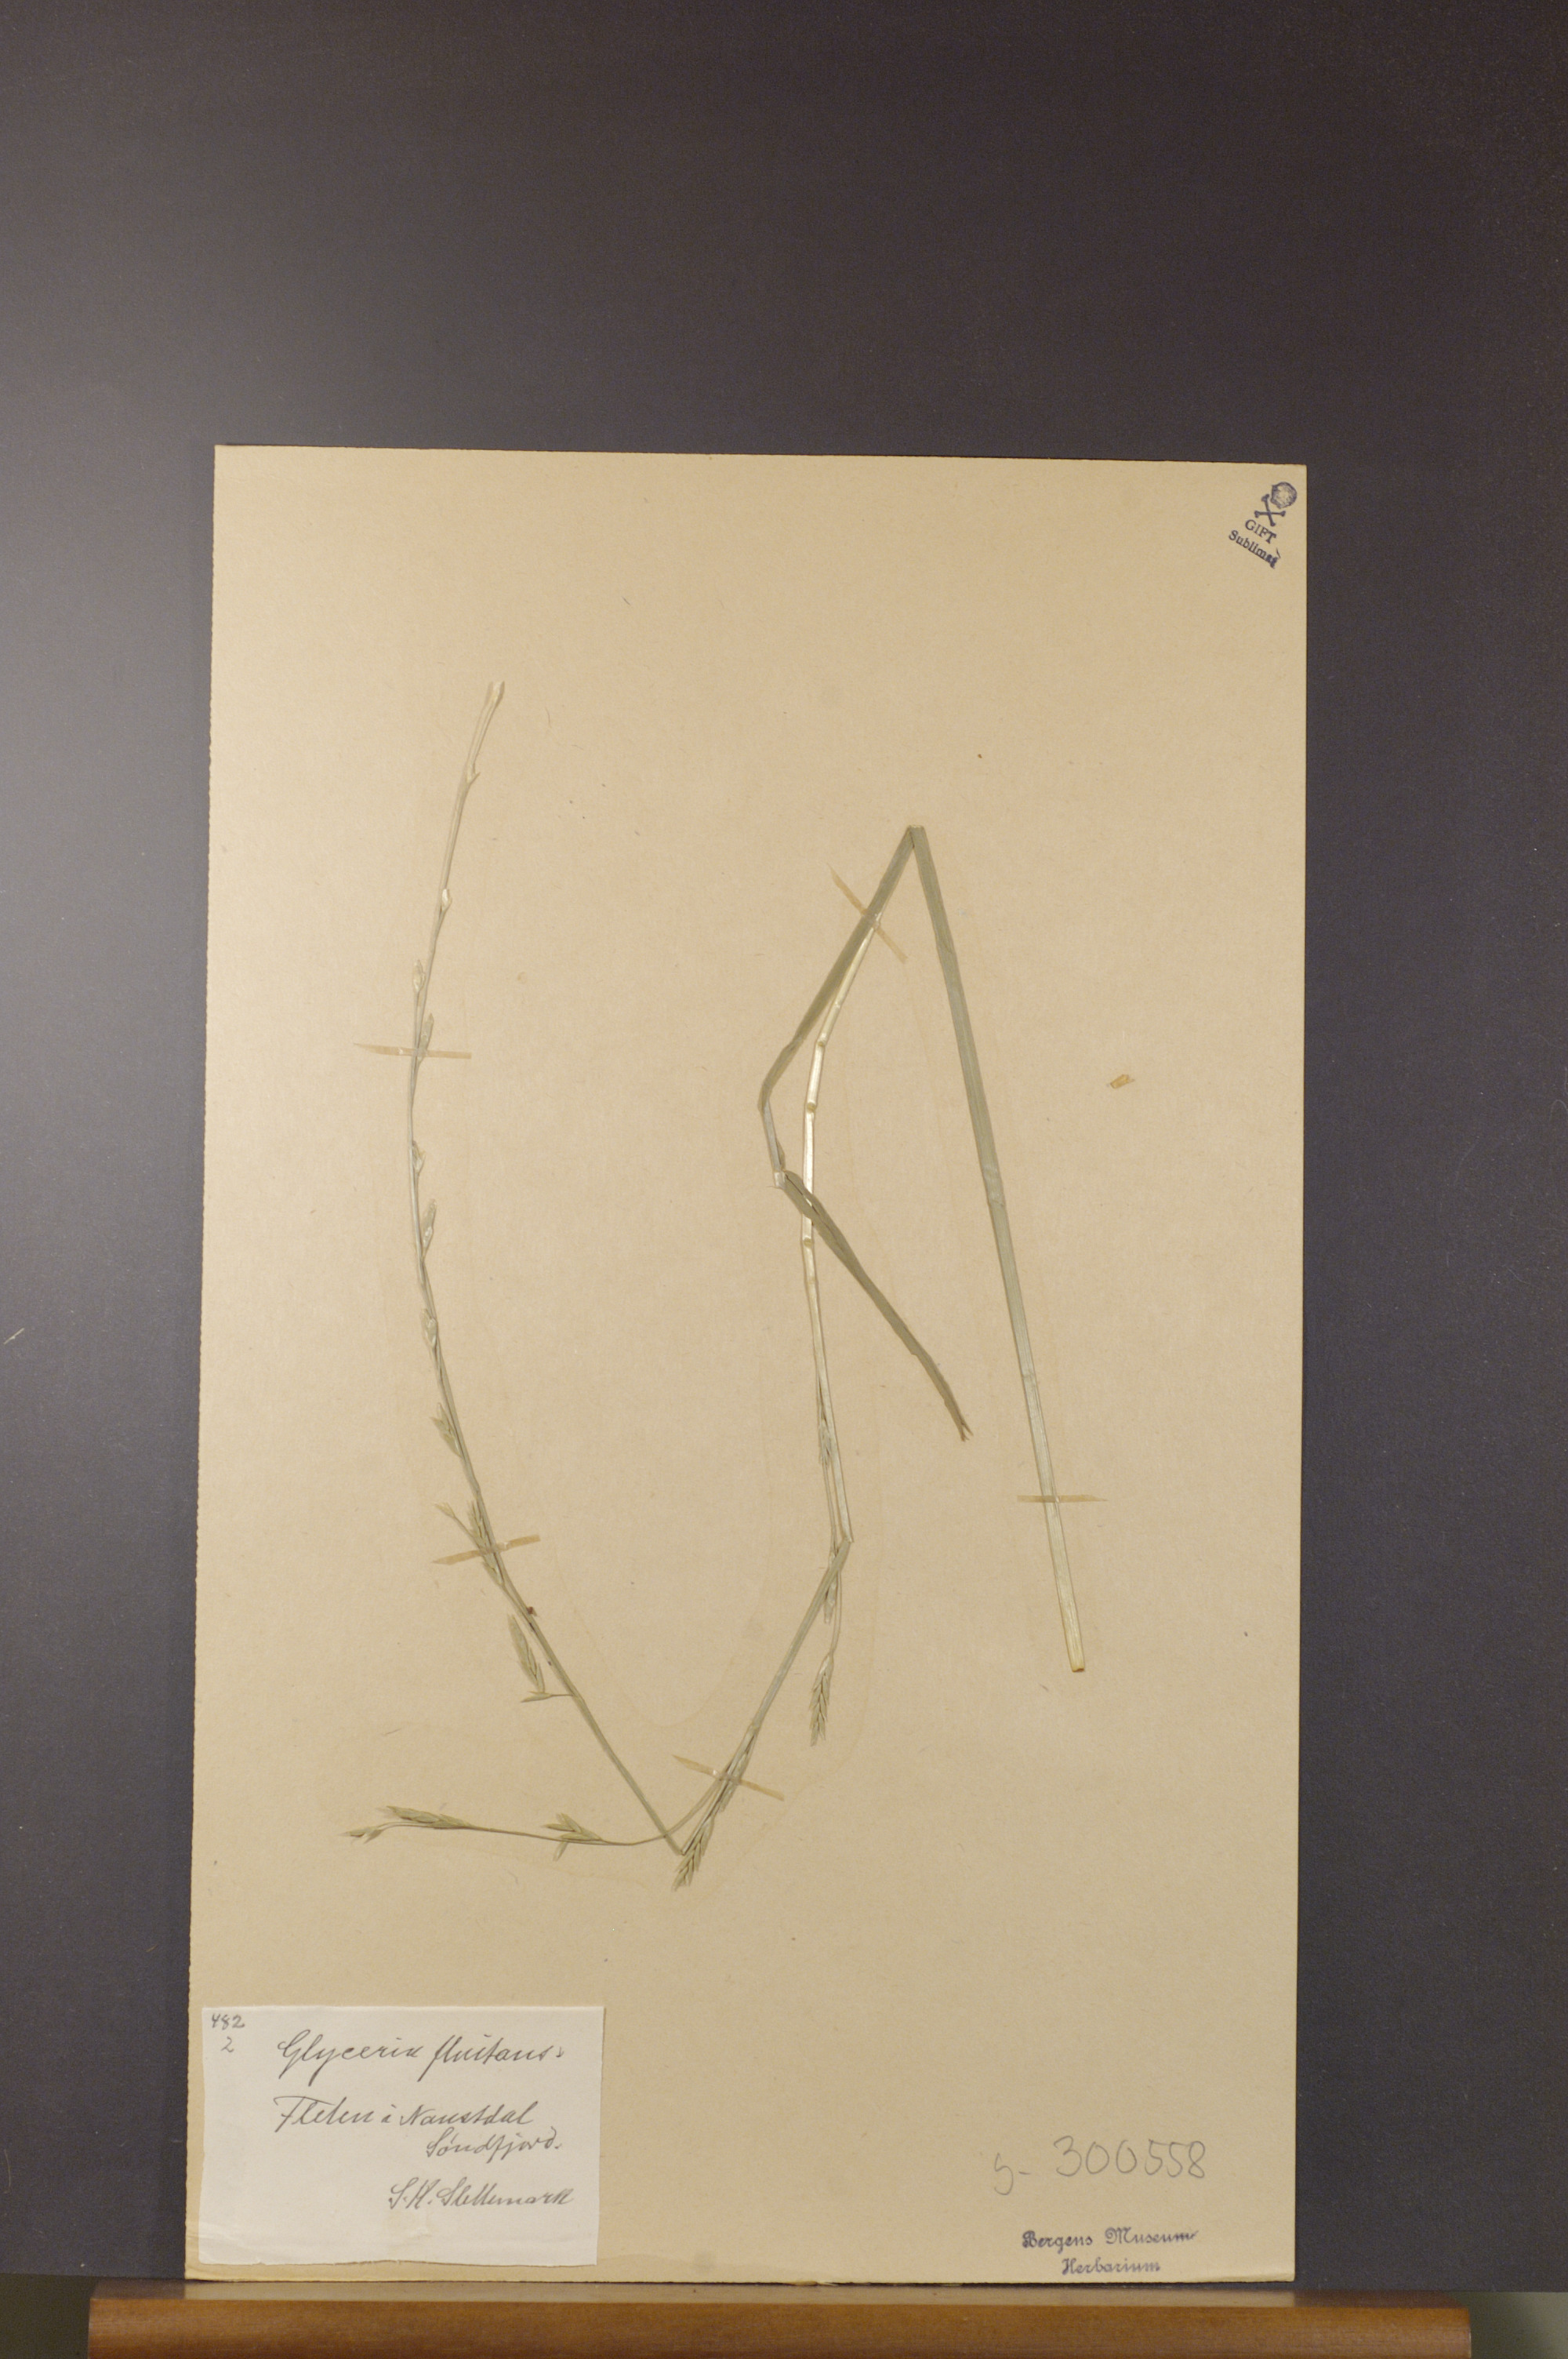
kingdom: Plantae
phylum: Tracheophyta
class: Liliopsida
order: Poales
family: Poaceae
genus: Glyceria
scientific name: Glyceria fluitans
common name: Floating sweet-grass
